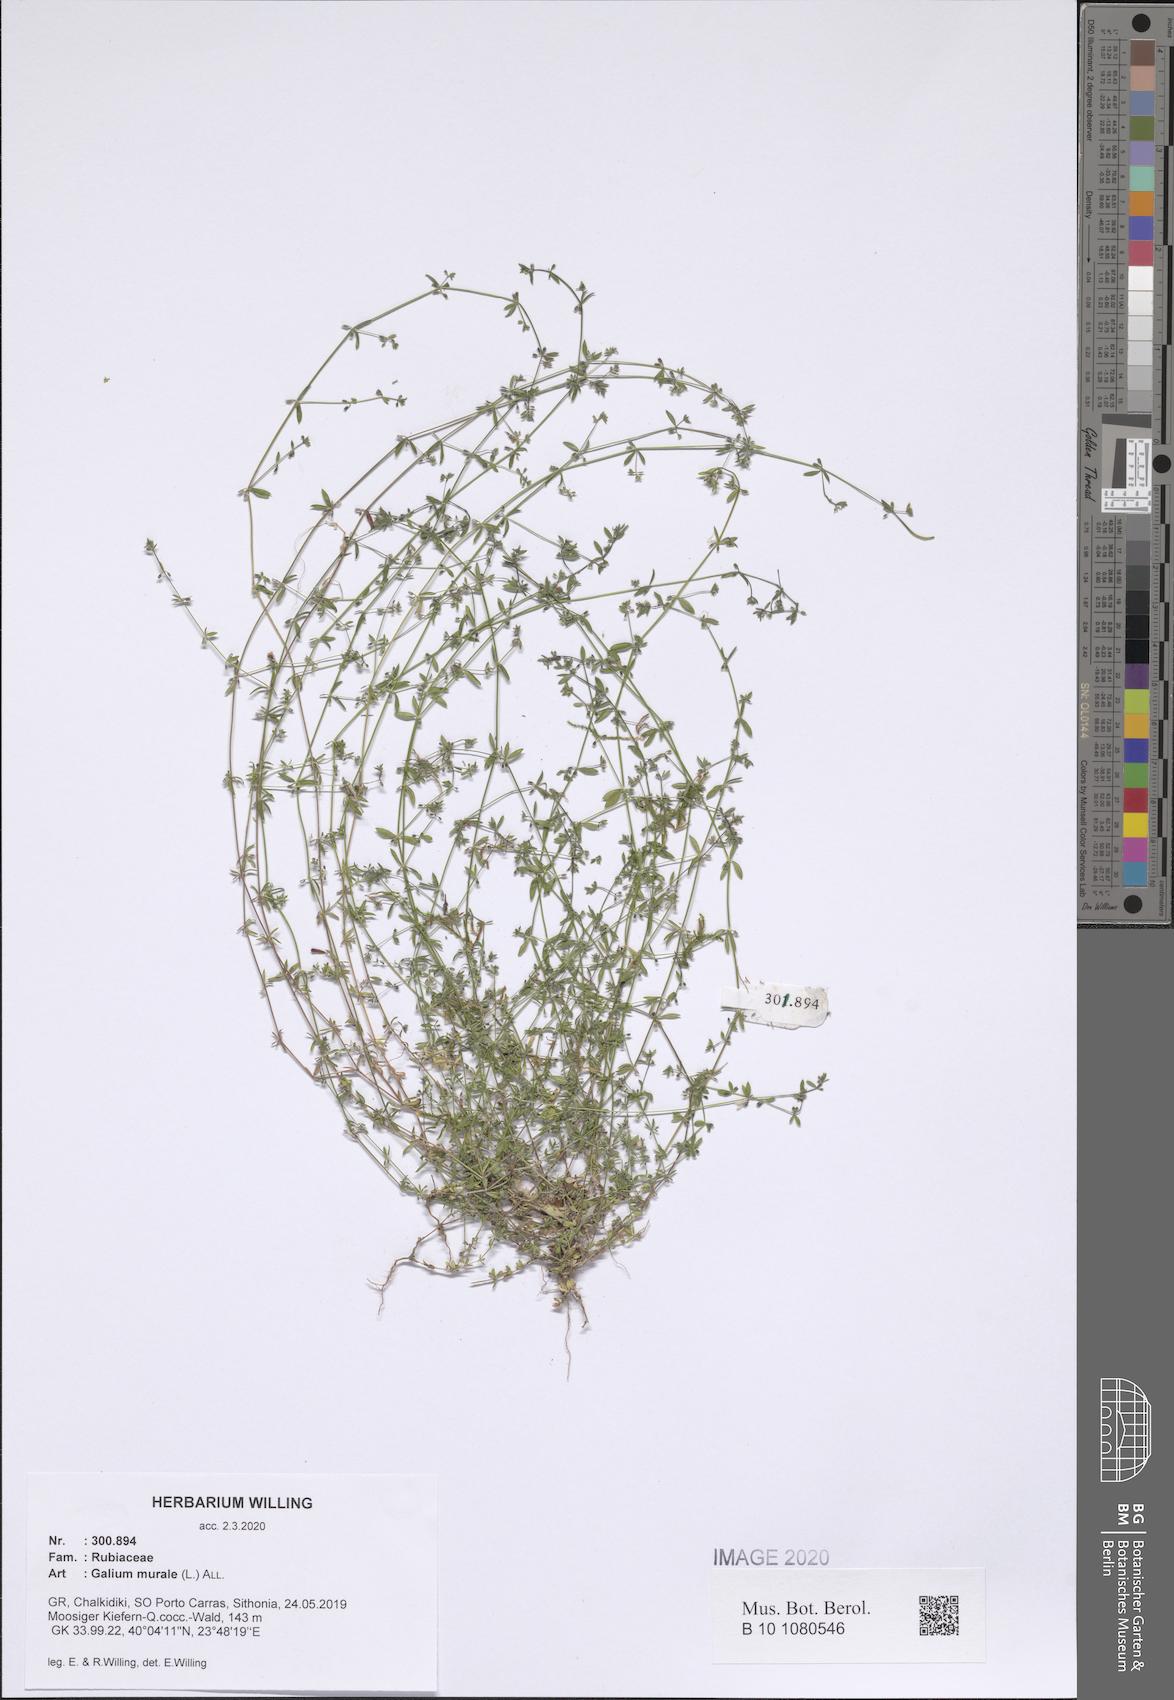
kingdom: Plantae
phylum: Tracheophyta
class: Magnoliopsida
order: Gentianales
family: Rubiaceae
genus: Galium
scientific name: Galium murale
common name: Yellow wall bedstraw
